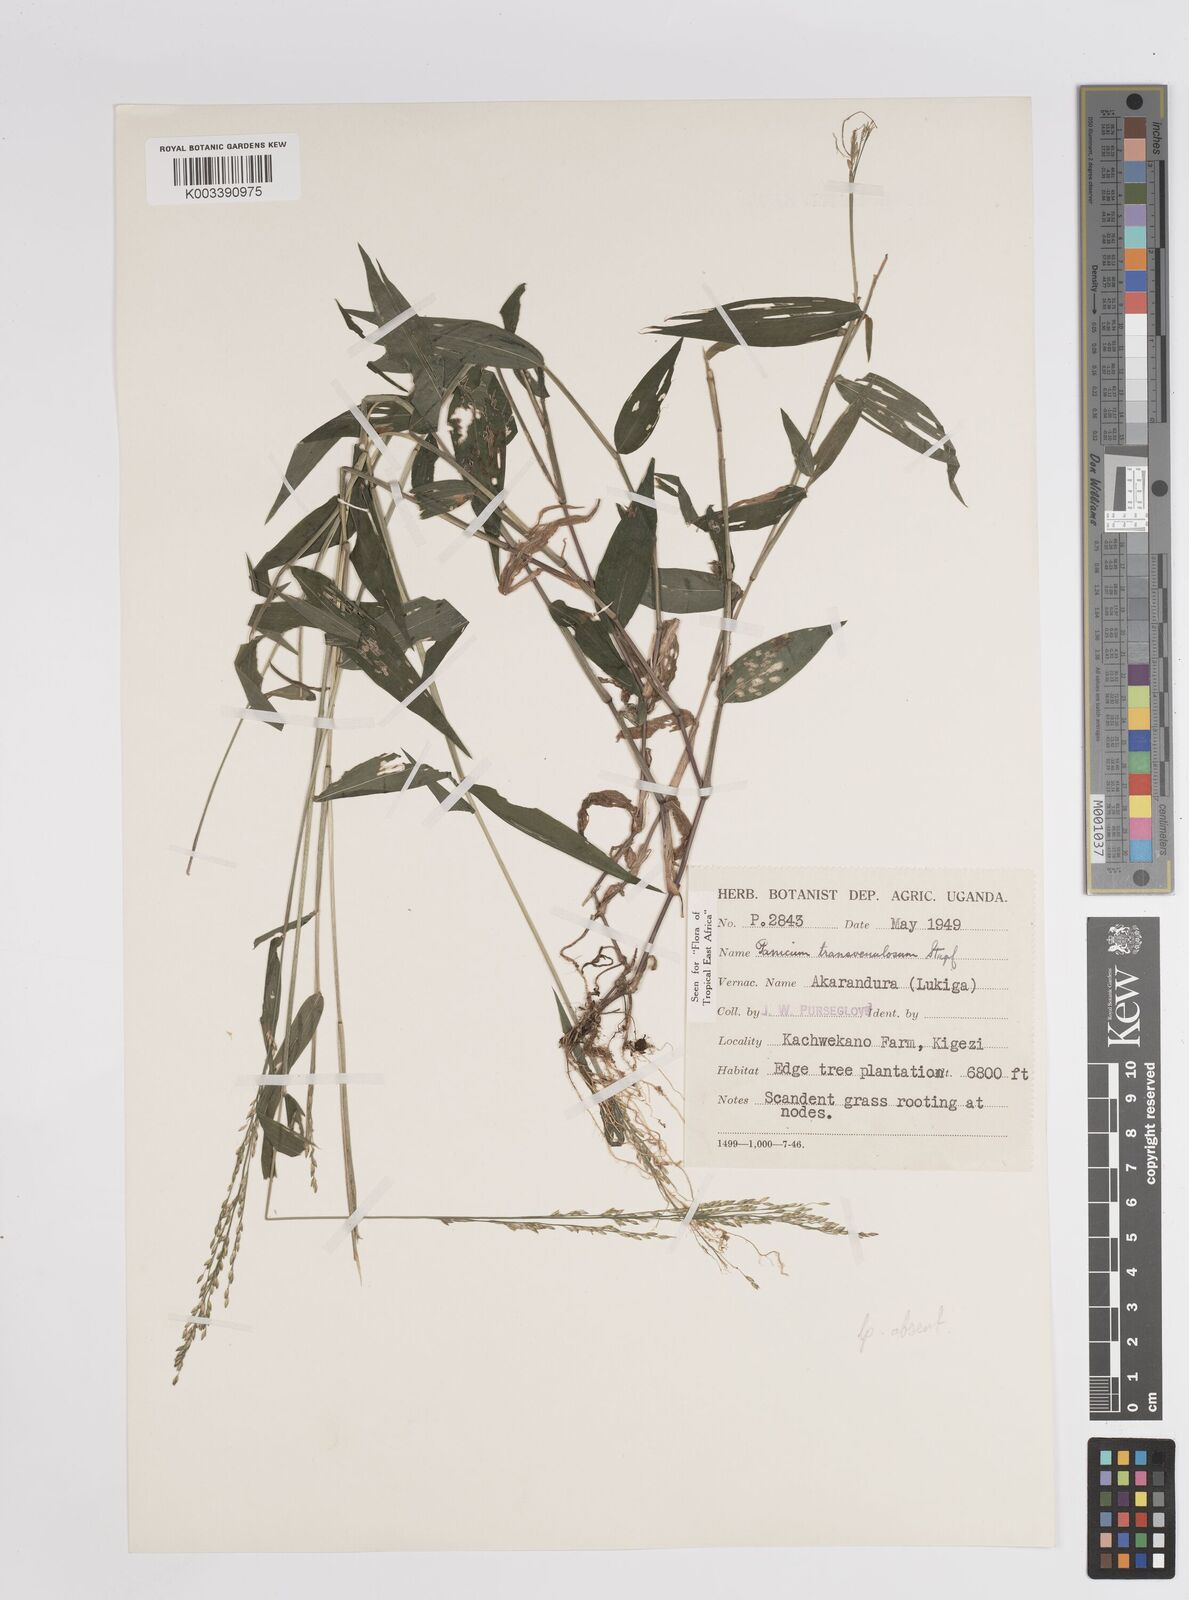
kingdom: Plantae
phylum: Tracheophyta
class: Liliopsida
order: Poales
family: Poaceae
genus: Panicum
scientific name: Panicum
